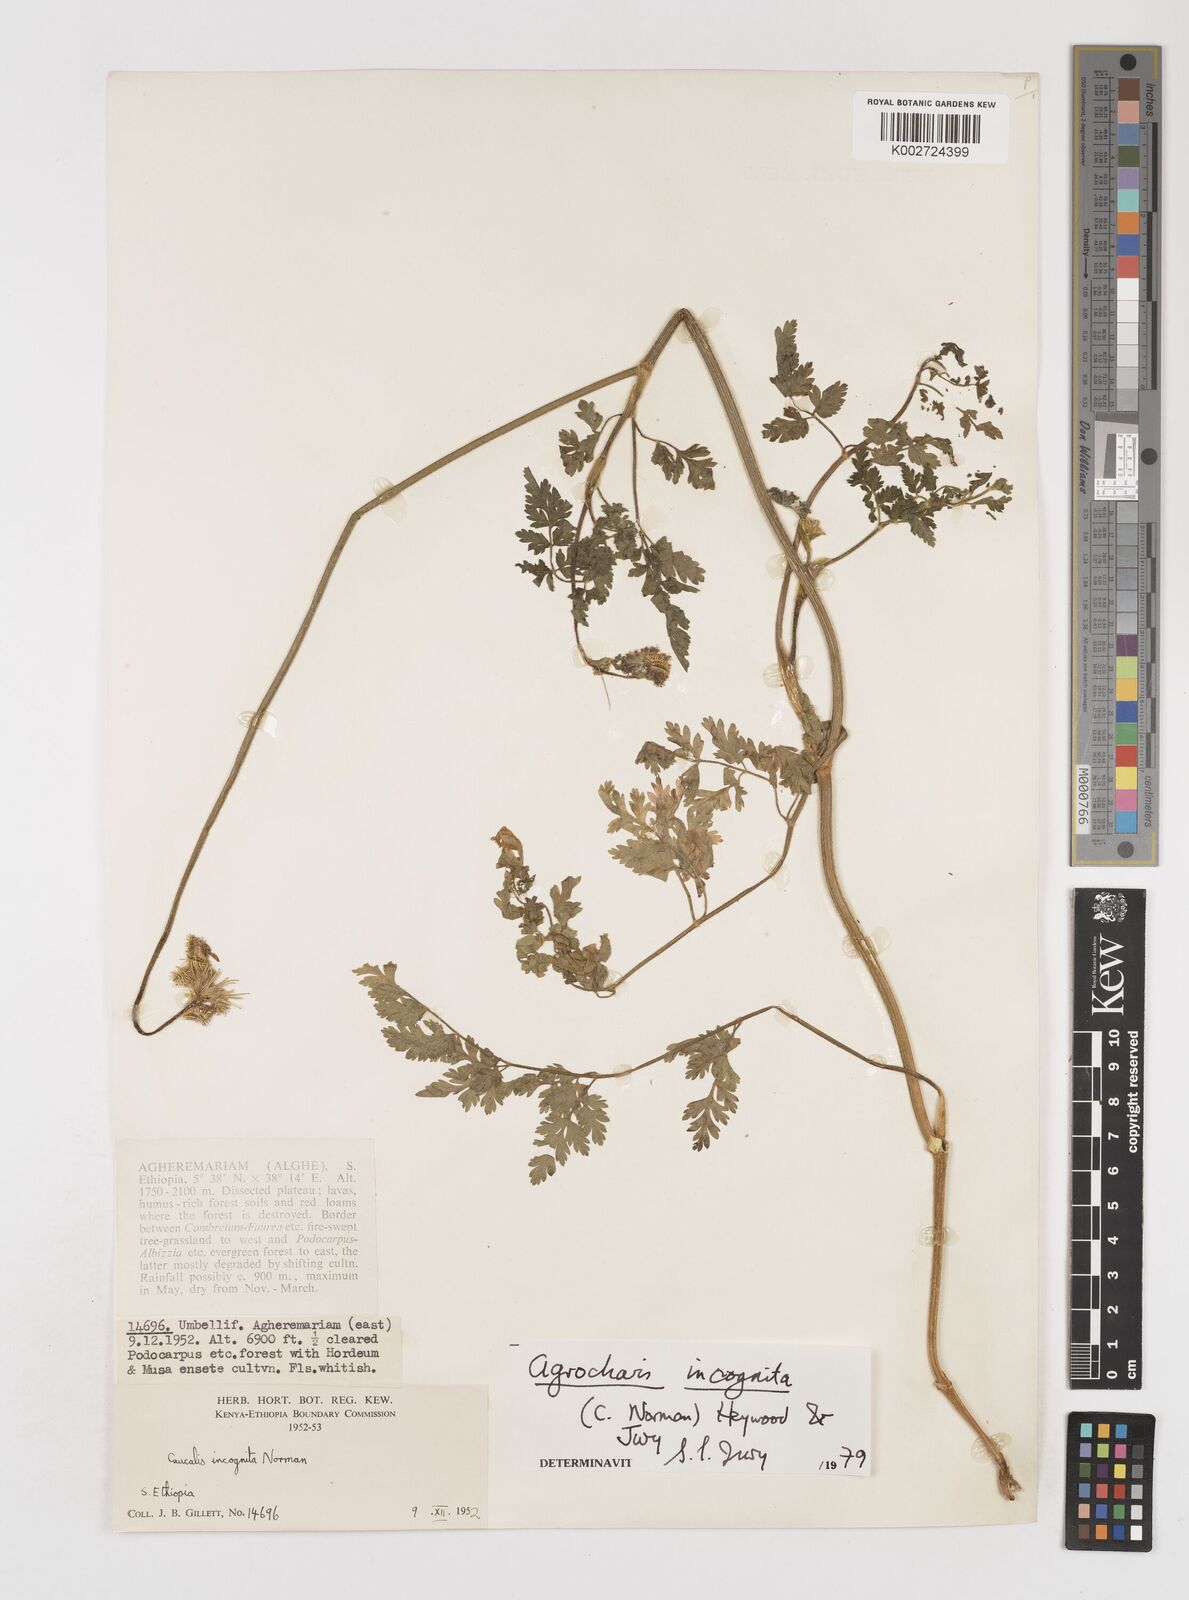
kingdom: Plantae
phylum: Tracheophyta
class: Magnoliopsida
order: Apiales
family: Apiaceae
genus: Daucus
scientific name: Daucus incognitus
